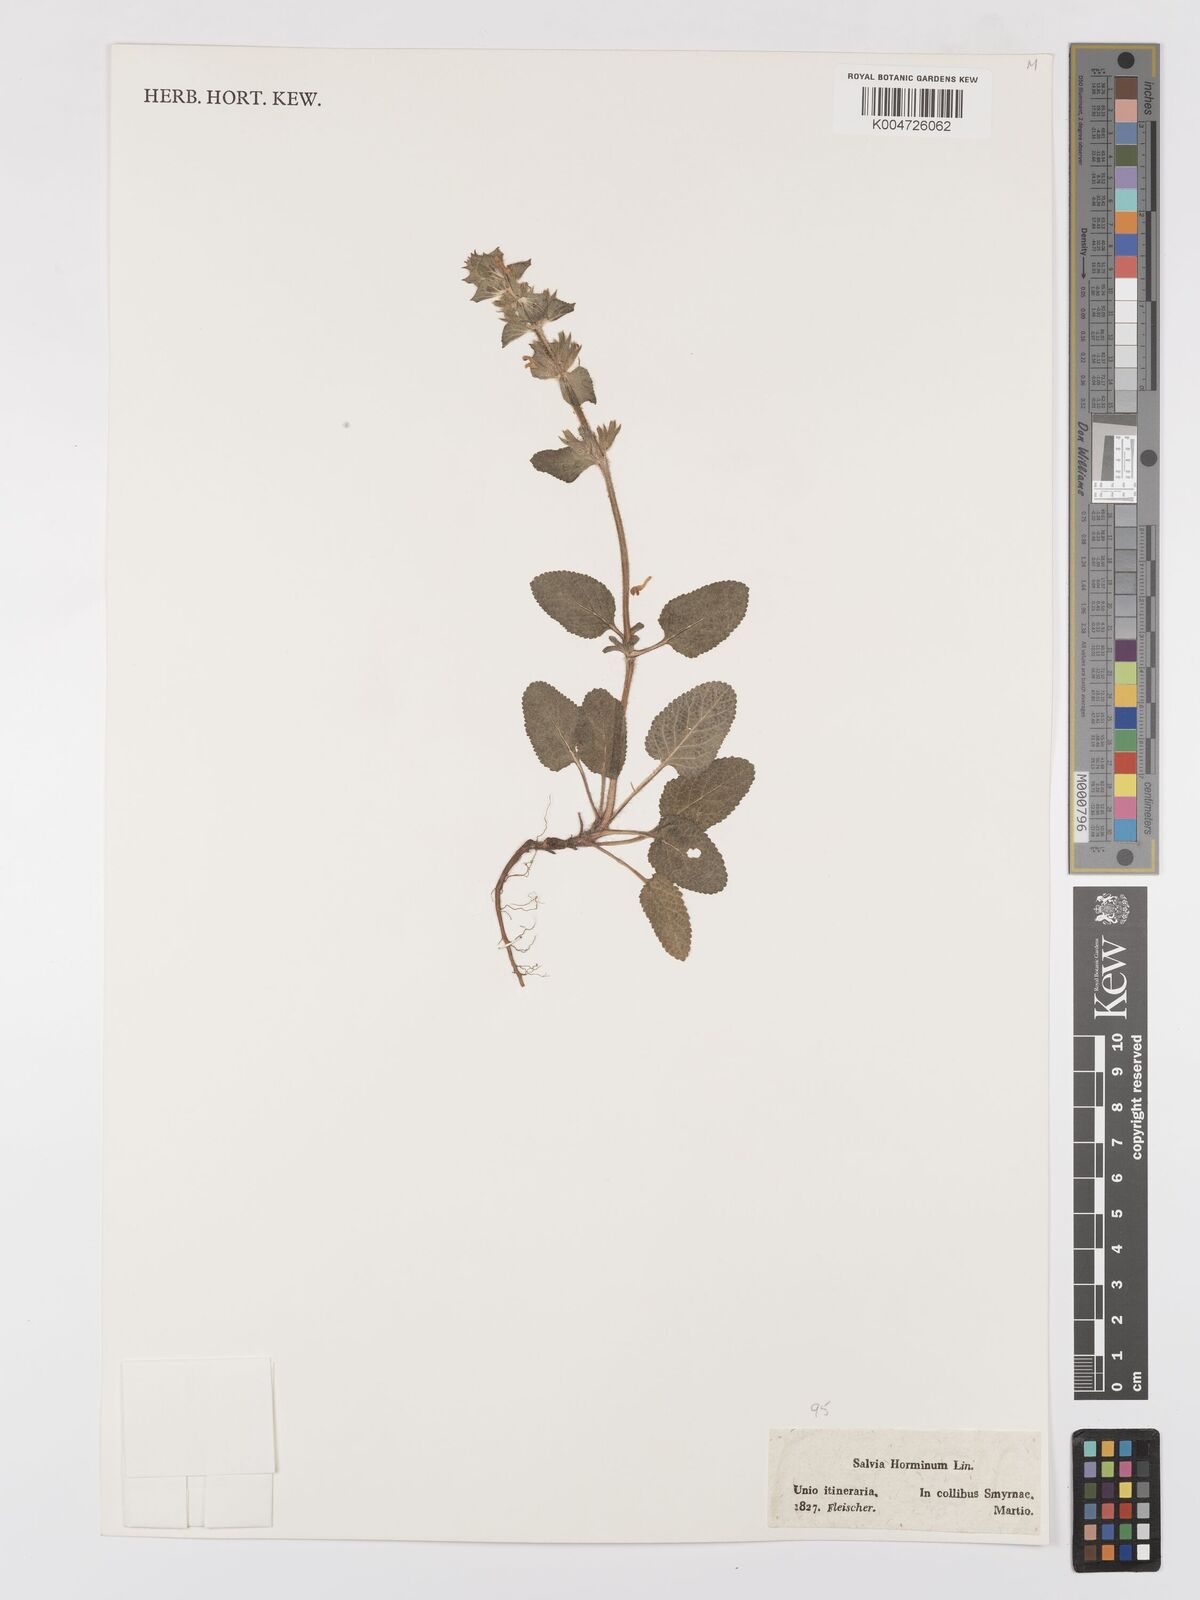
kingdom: Plantae
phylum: Tracheophyta
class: Magnoliopsida
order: Lamiales
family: Lamiaceae
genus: Salvia
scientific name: Salvia viridis
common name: Annual clary
